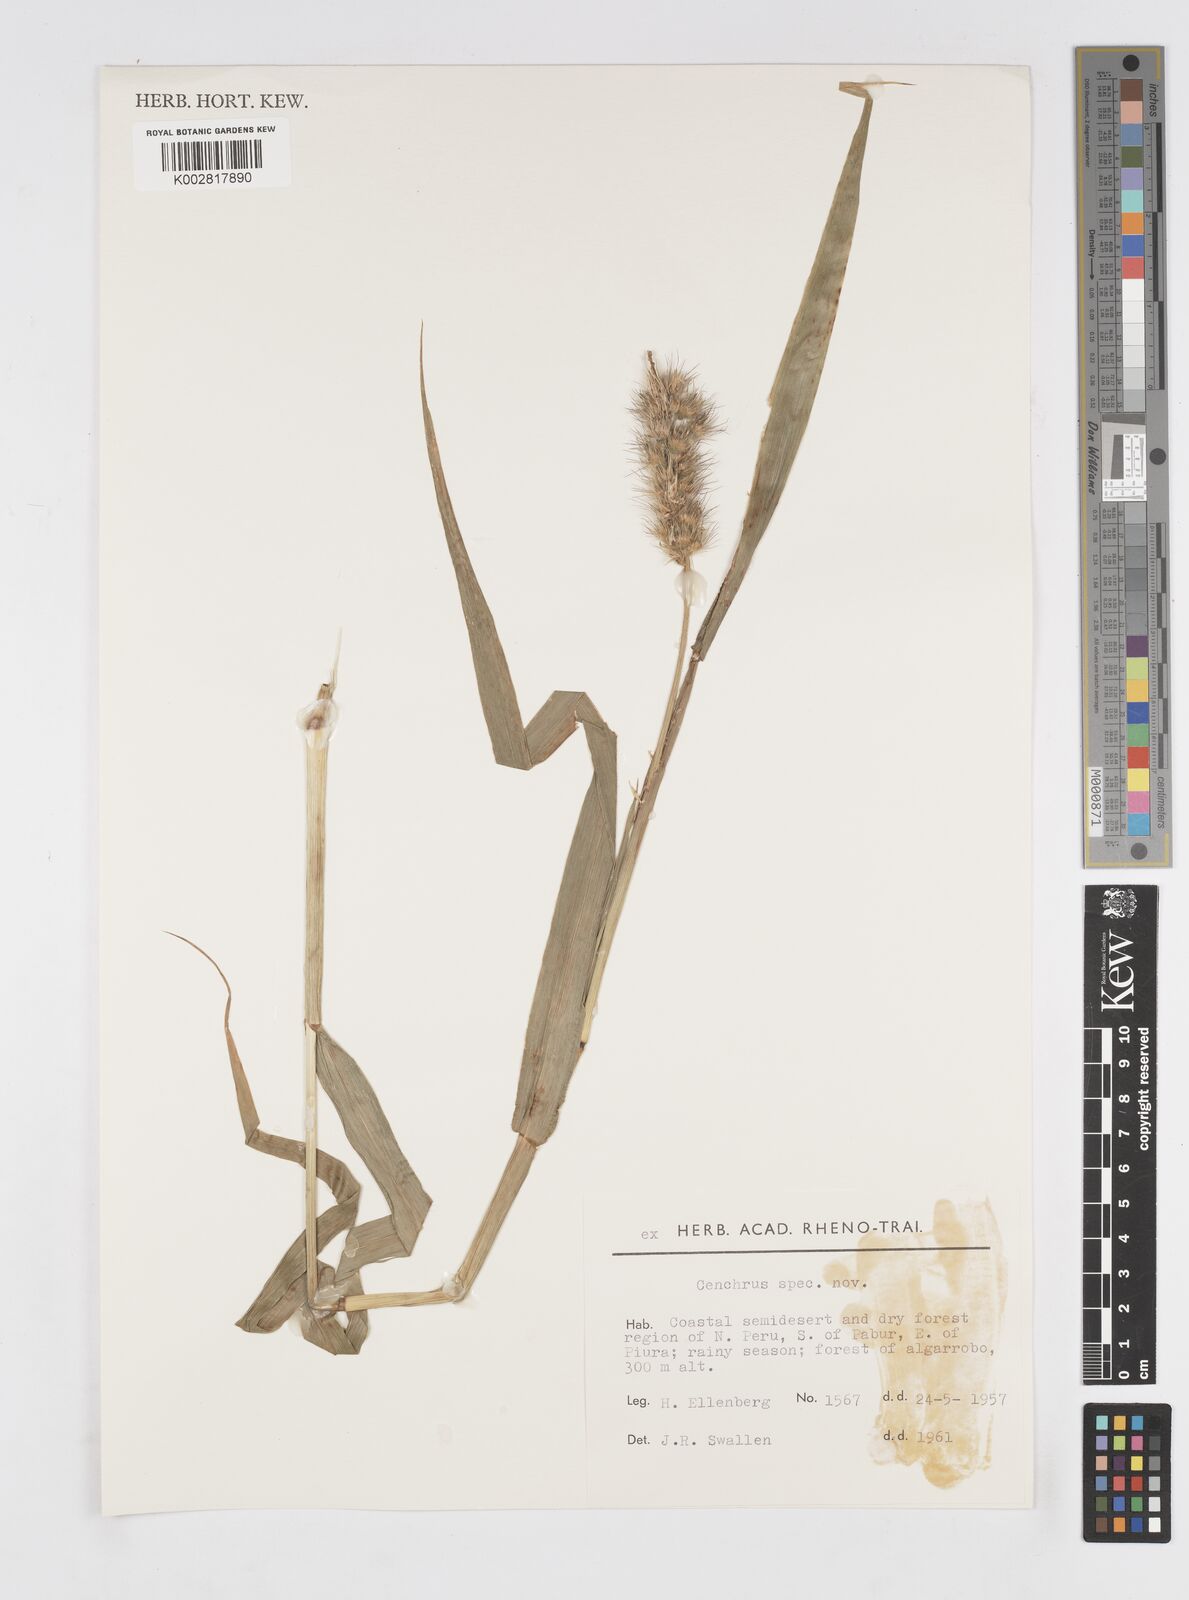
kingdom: Plantae
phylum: Tracheophyta
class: Liliopsida
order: Poales
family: Poaceae
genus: Cenchrus
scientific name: Cenchrus pilosus
